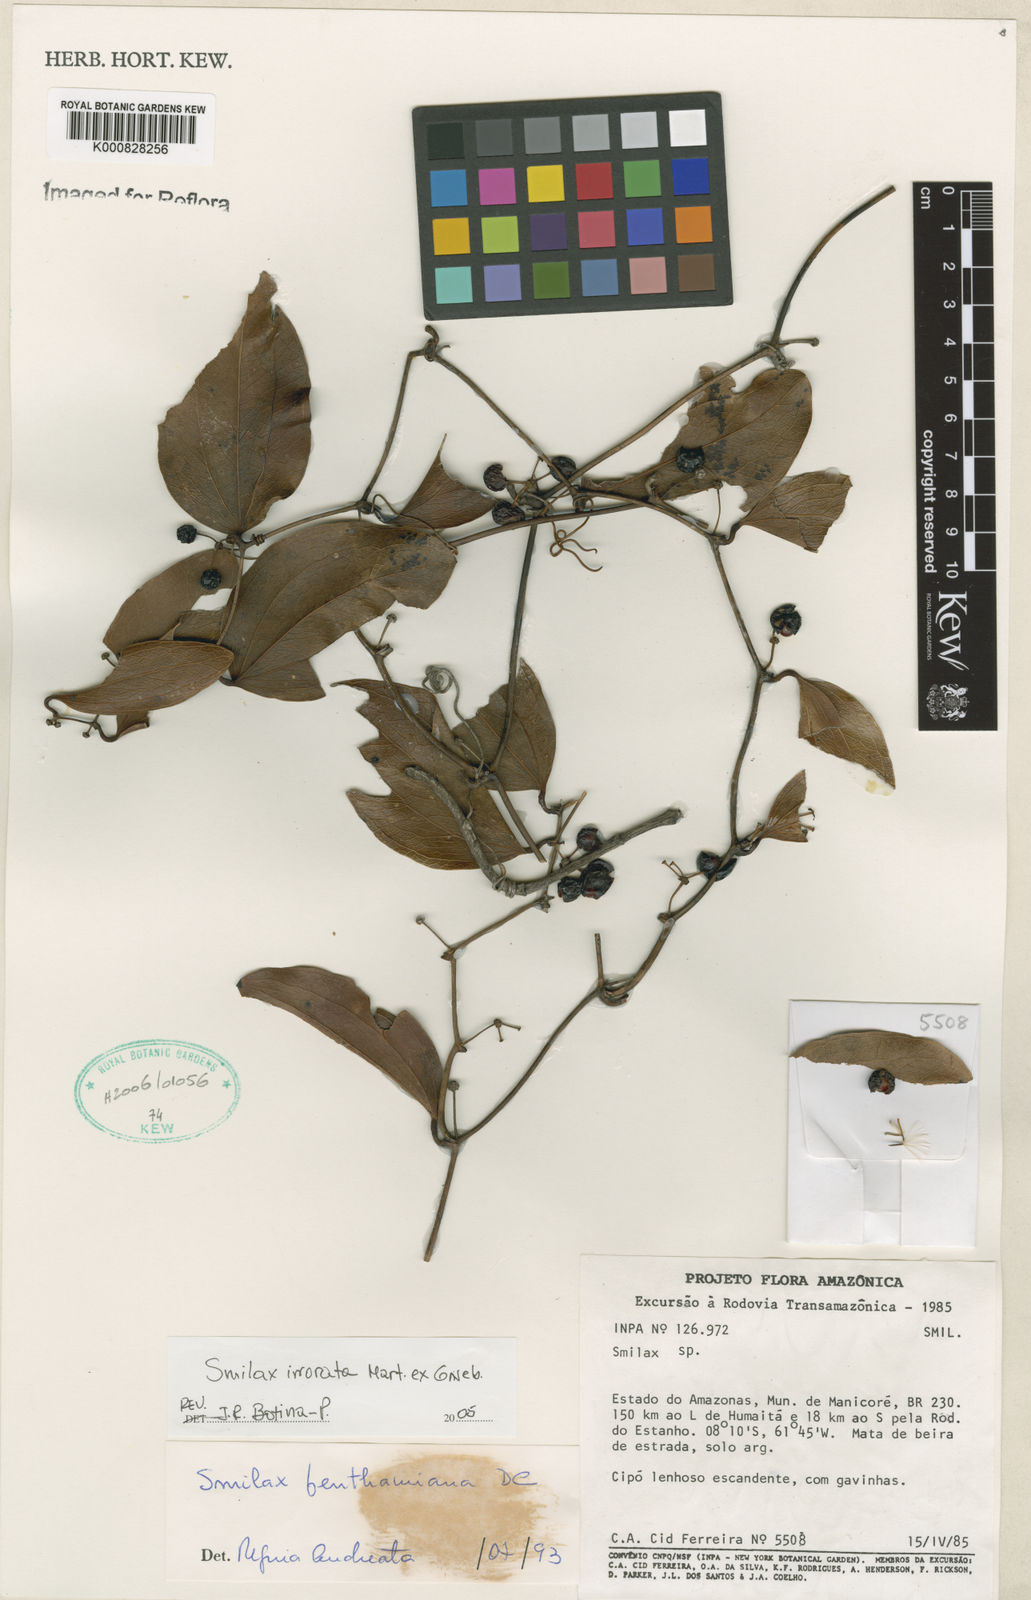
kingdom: Plantae
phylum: Tracheophyta
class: Liliopsida
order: Liliales
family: Smilacaceae
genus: Smilax
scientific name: Smilax irrorata
